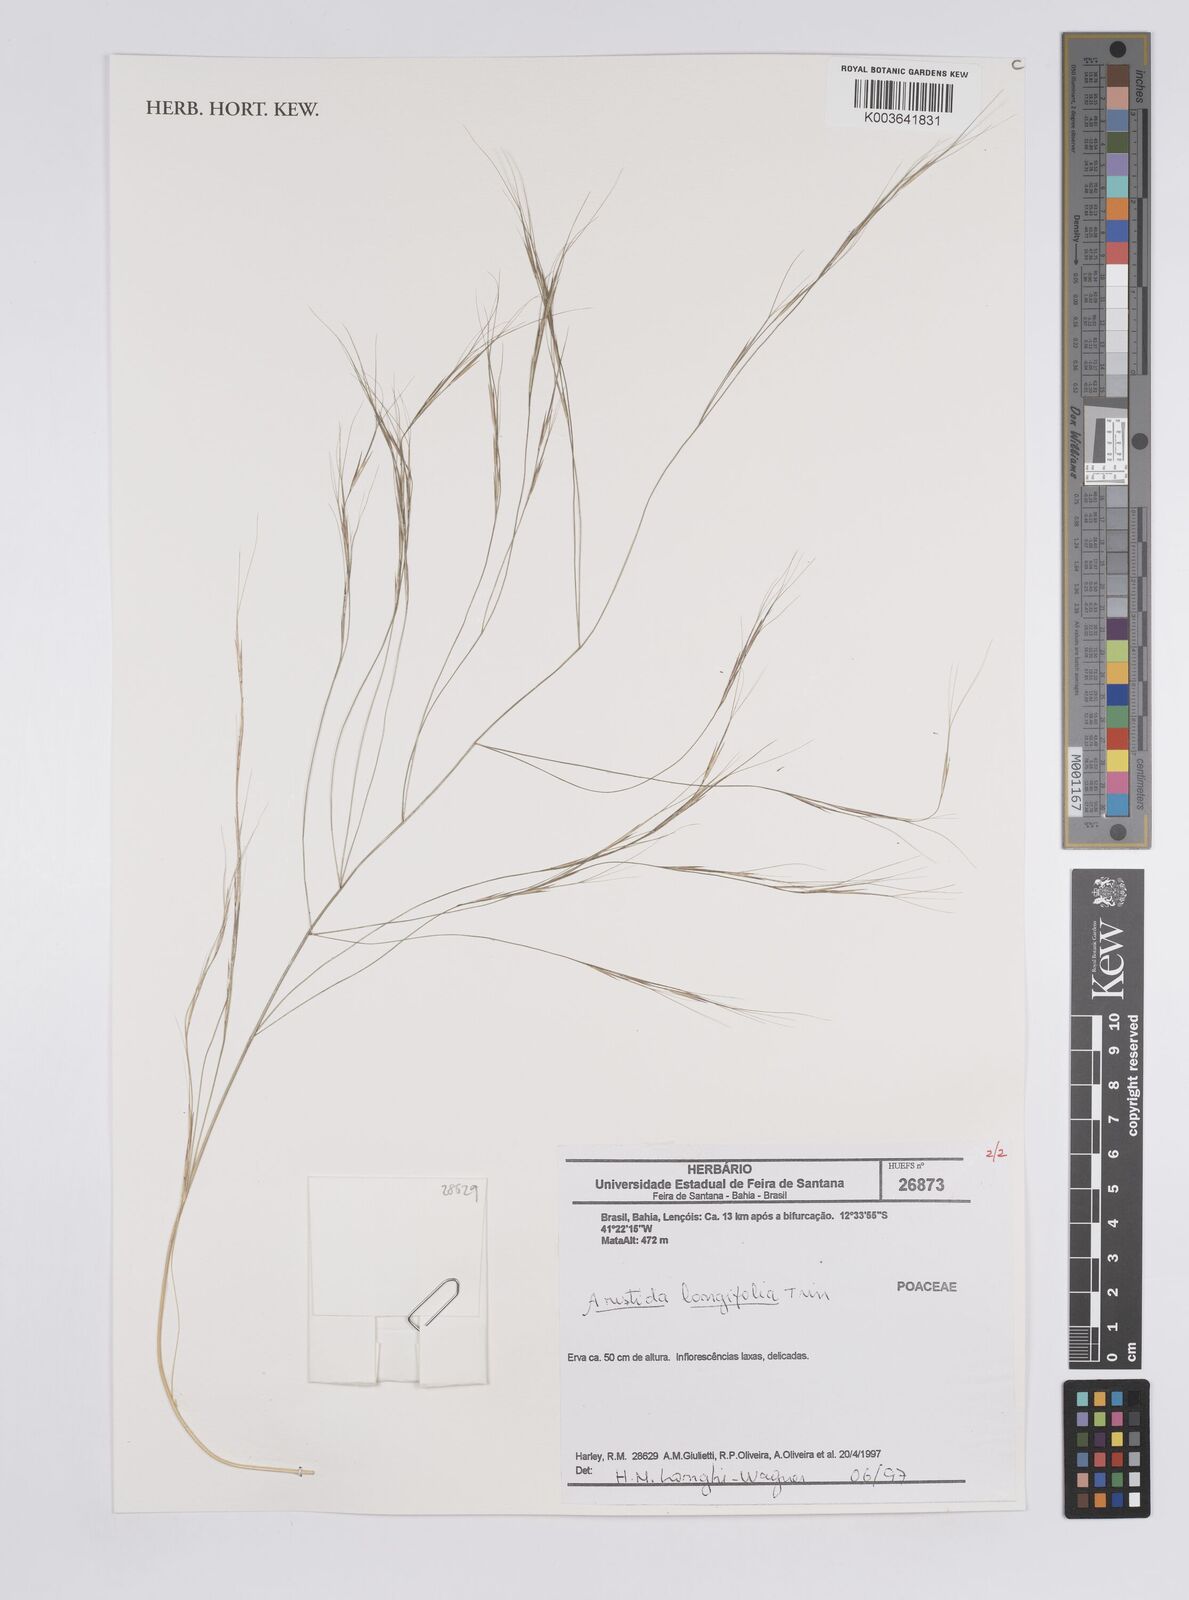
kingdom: Plantae
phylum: Tracheophyta
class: Liliopsida
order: Poales
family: Poaceae
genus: Aristida
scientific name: Aristida longifolia
